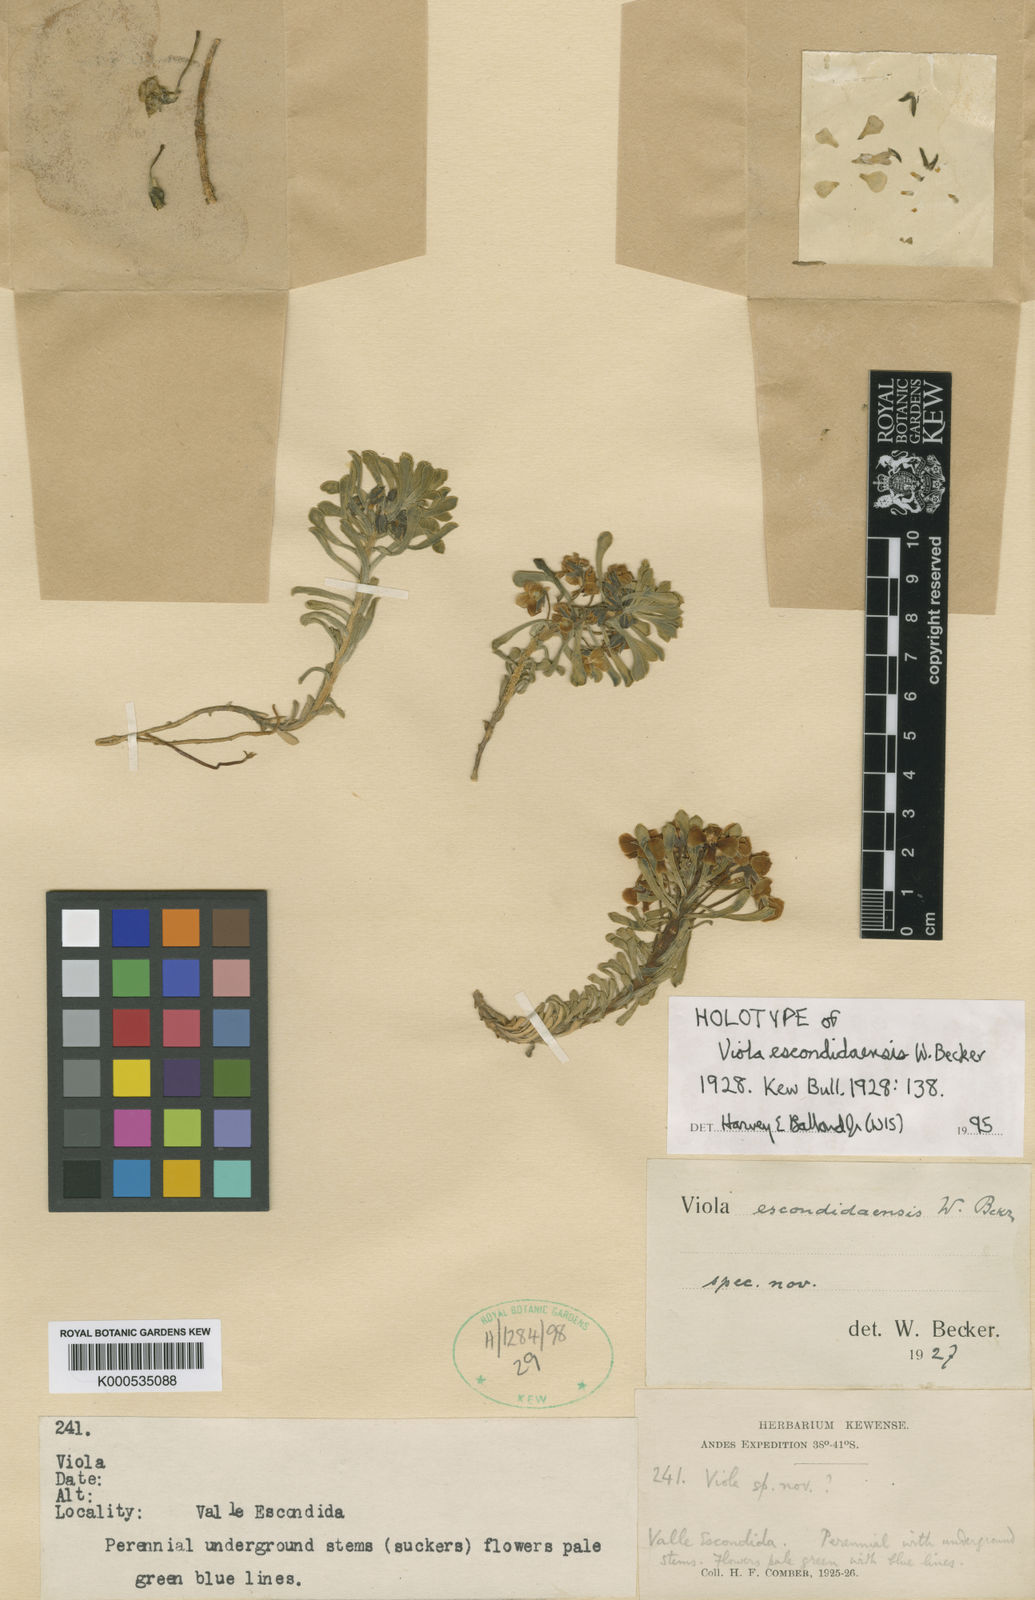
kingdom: Plantae
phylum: Tracheophyta
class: Magnoliopsida
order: Malpighiales
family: Violaceae
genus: Viola
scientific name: Viola escondidaensis
